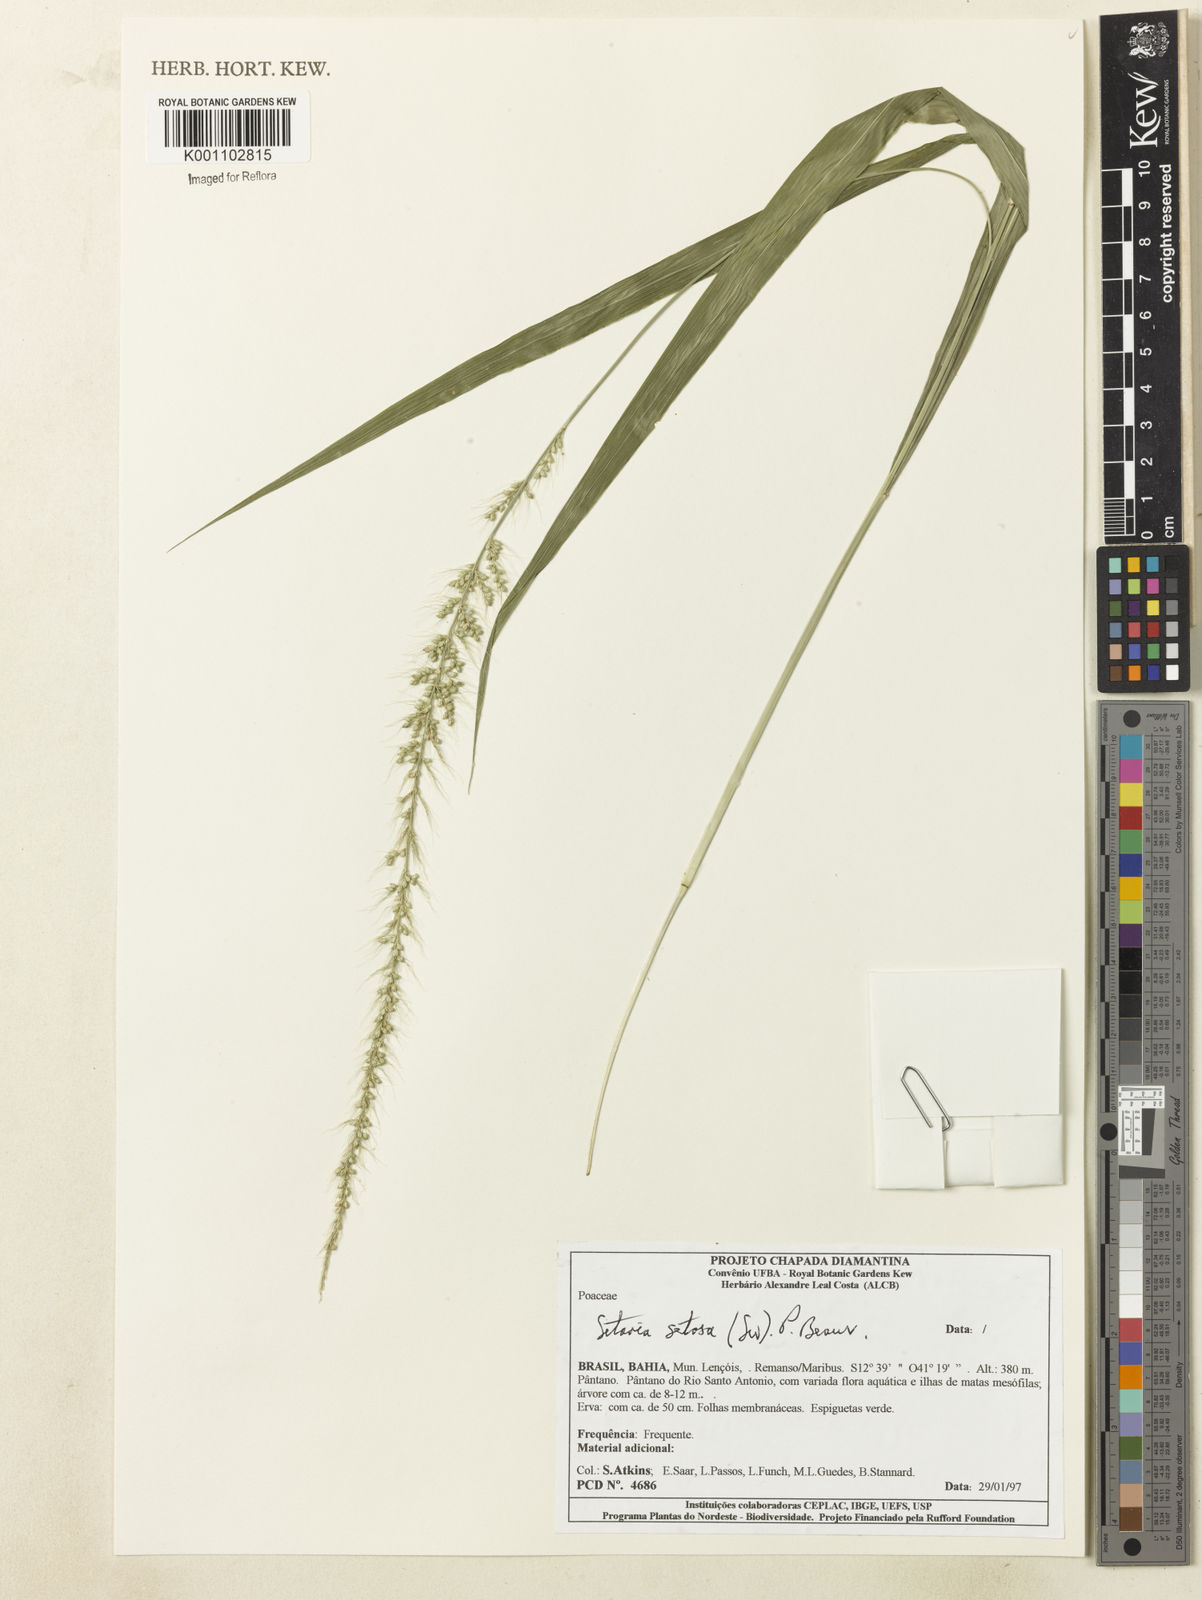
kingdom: Plantae
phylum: Tracheophyta
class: Liliopsida
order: Poales
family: Poaceae
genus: Setaria
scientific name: Setaria setosa
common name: West indies bristle grass
